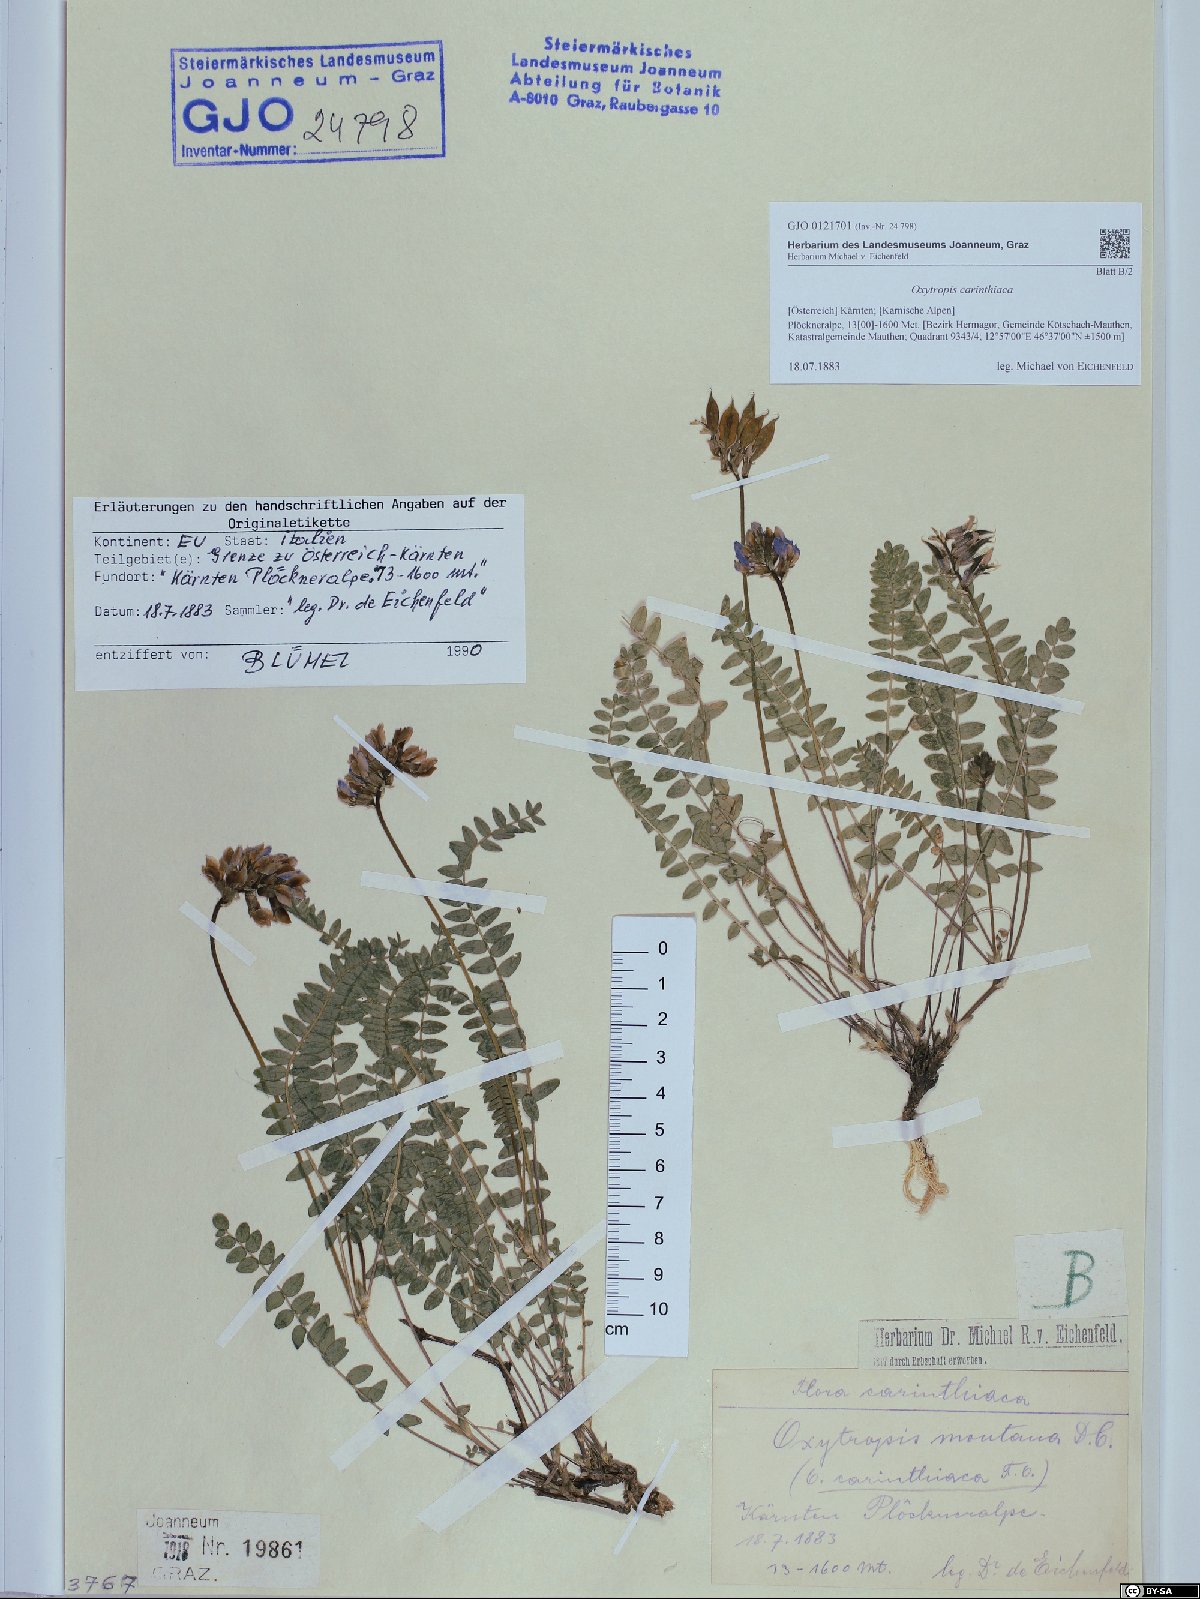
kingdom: Plantae
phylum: Tracheophyta
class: Magnoliopsida
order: Fabales
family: Fabaceae
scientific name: Fabaceae
